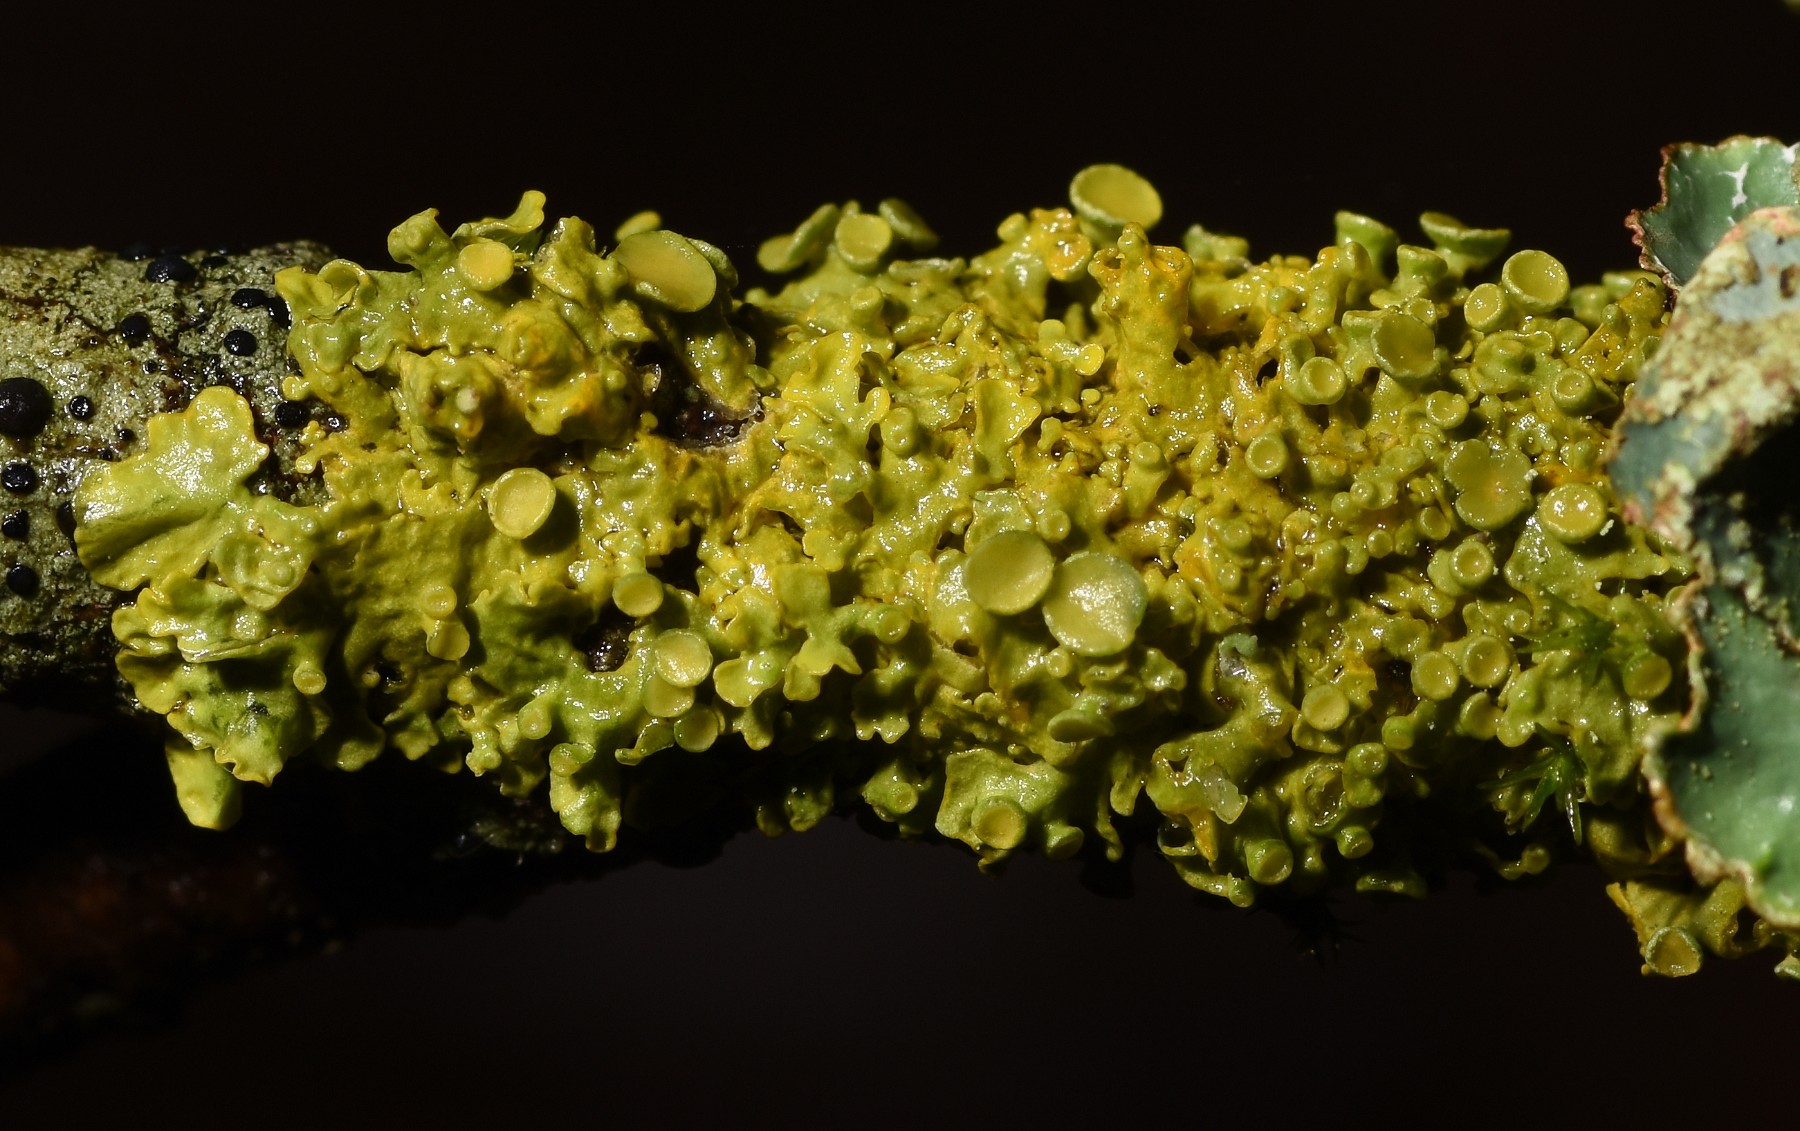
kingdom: Fungi
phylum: Ascomycota
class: Lecanoromycetes
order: Teloschistales
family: Teloschistaceae
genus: Xanthoria
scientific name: Xanthoria parietina
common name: almindelig væggelav
